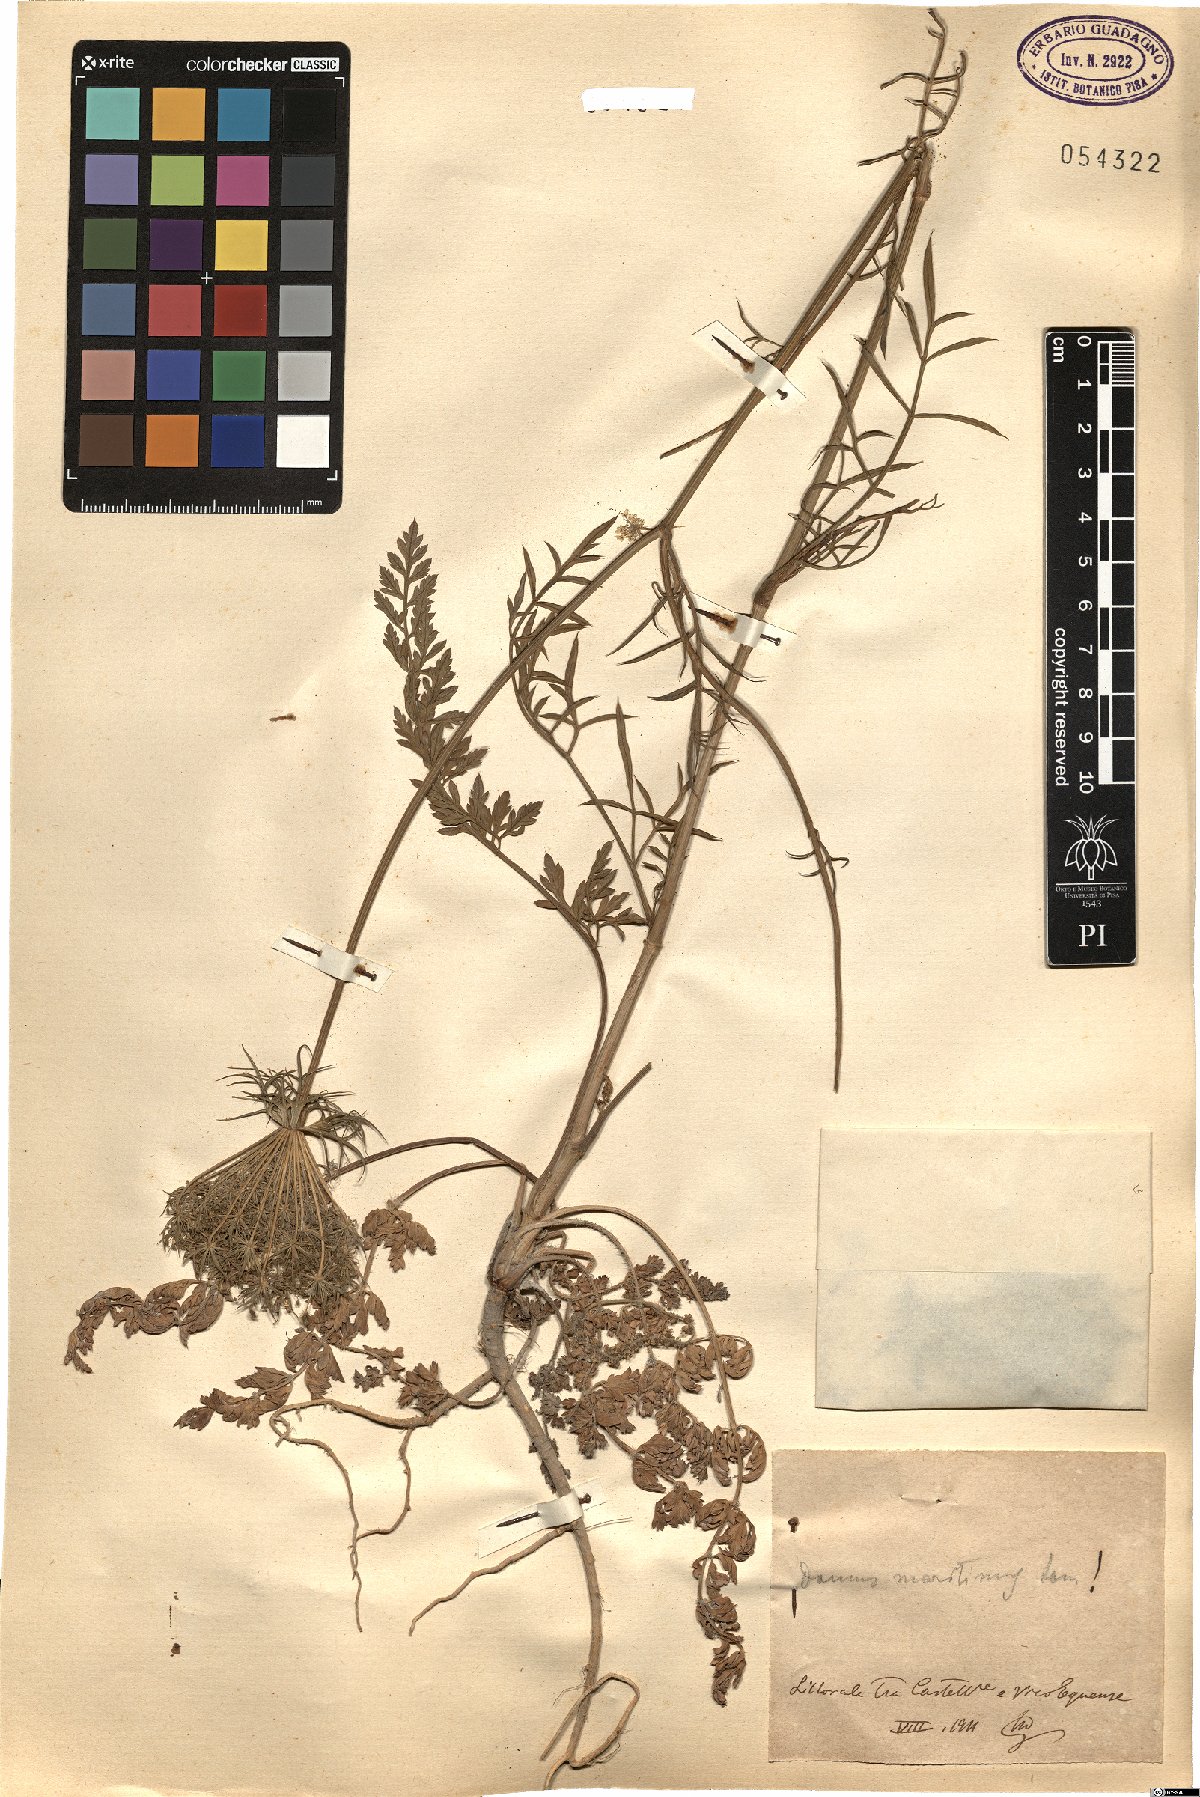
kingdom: Plantae
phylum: Tracheophyta
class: Magnoliopsida
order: Apiales
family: Apiaceae
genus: Daucus
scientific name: Daucus carota
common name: Wild carrot
